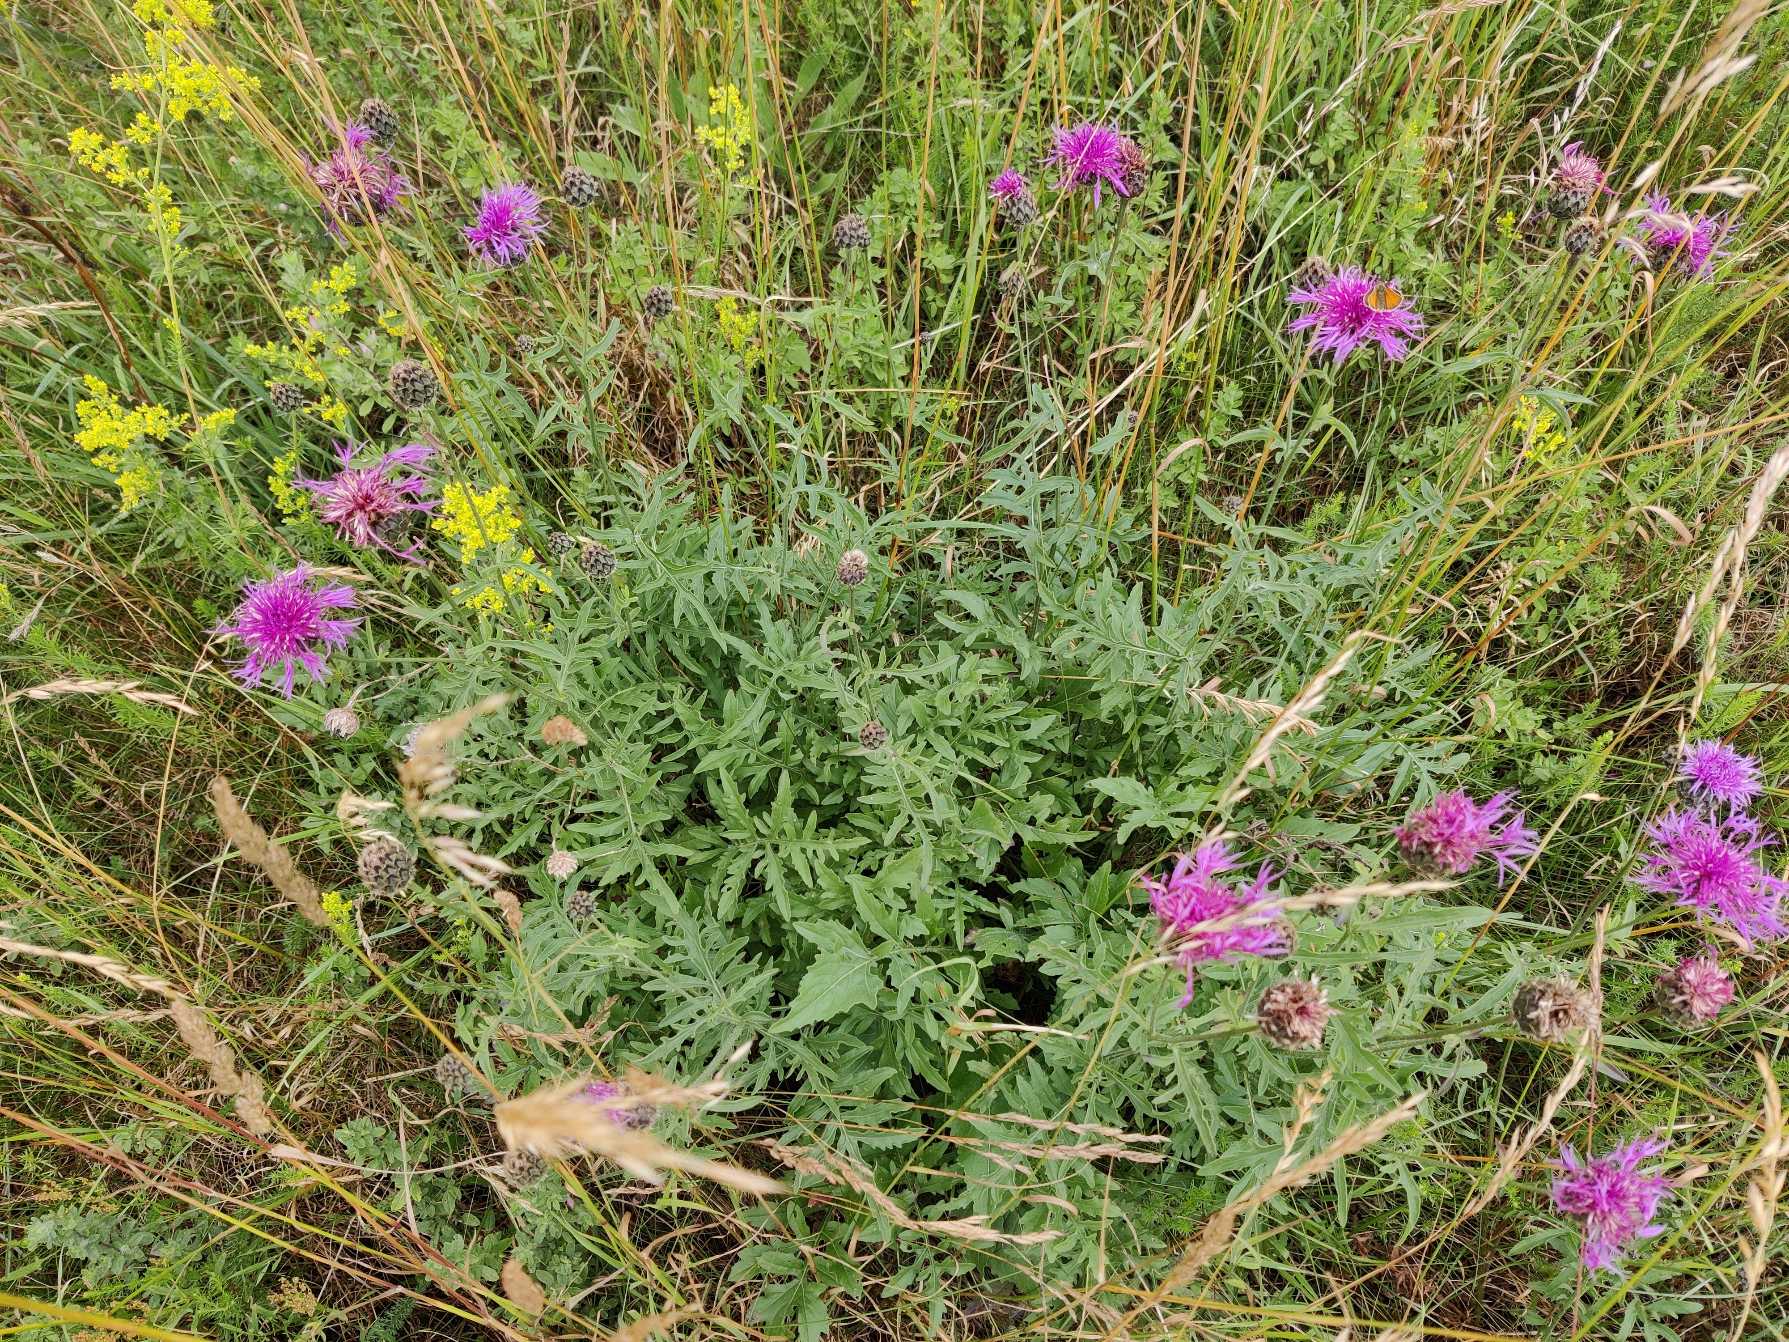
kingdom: Plantae
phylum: Tracheophyta
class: Magnoliopsida
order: Asterales
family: Asteraceae
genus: Centaurea
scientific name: Centaurea scabiosa
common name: Stor knopurt
